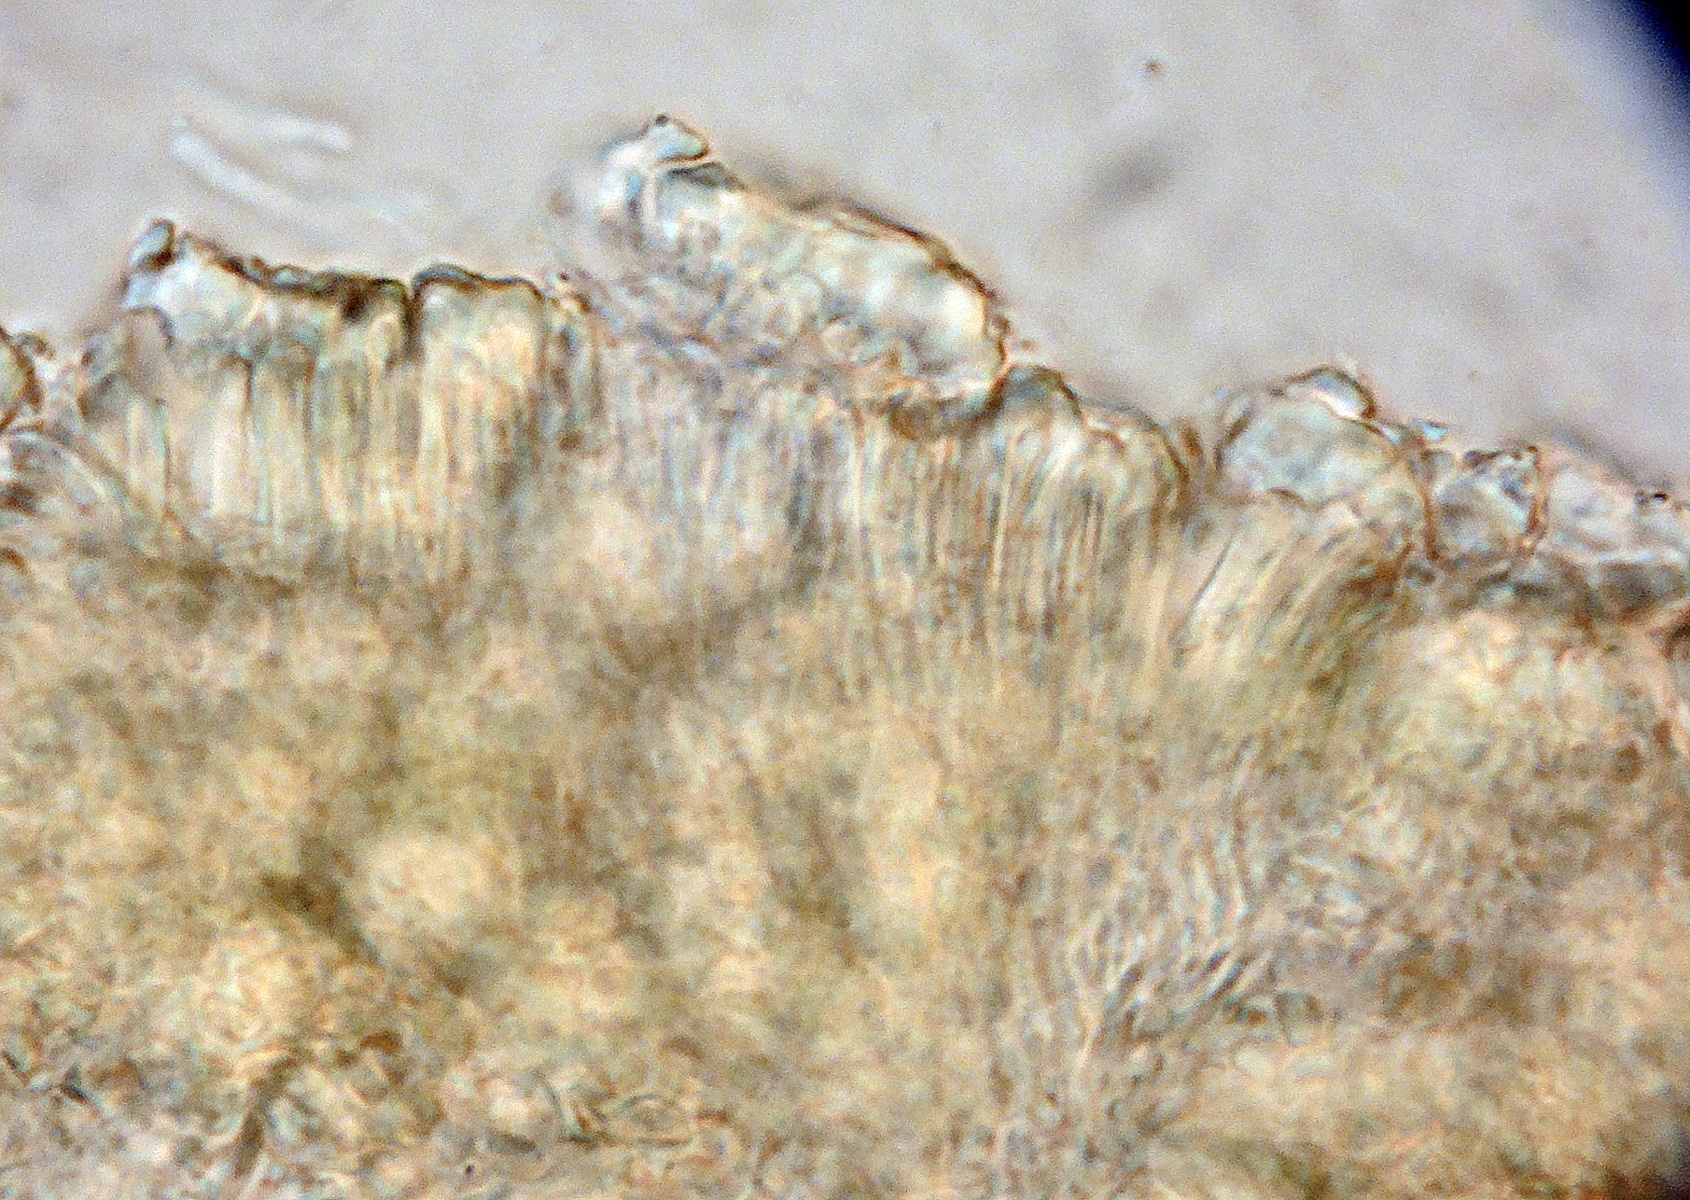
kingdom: Fungi
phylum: Ascomycota
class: Orbiliomycetes
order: Orbiliales
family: Orbiliaceae
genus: Orbilia
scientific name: Orbilia
